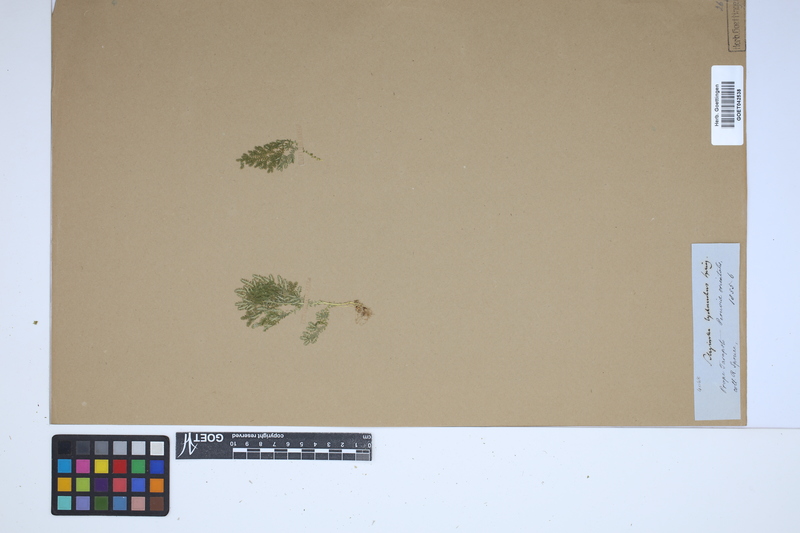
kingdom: Plantae
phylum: Tracheophyta
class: Lycopodiopsida
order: Selaginellales
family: Selaginellaceae
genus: Selaginella
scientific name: Selaginella lychnuchus
